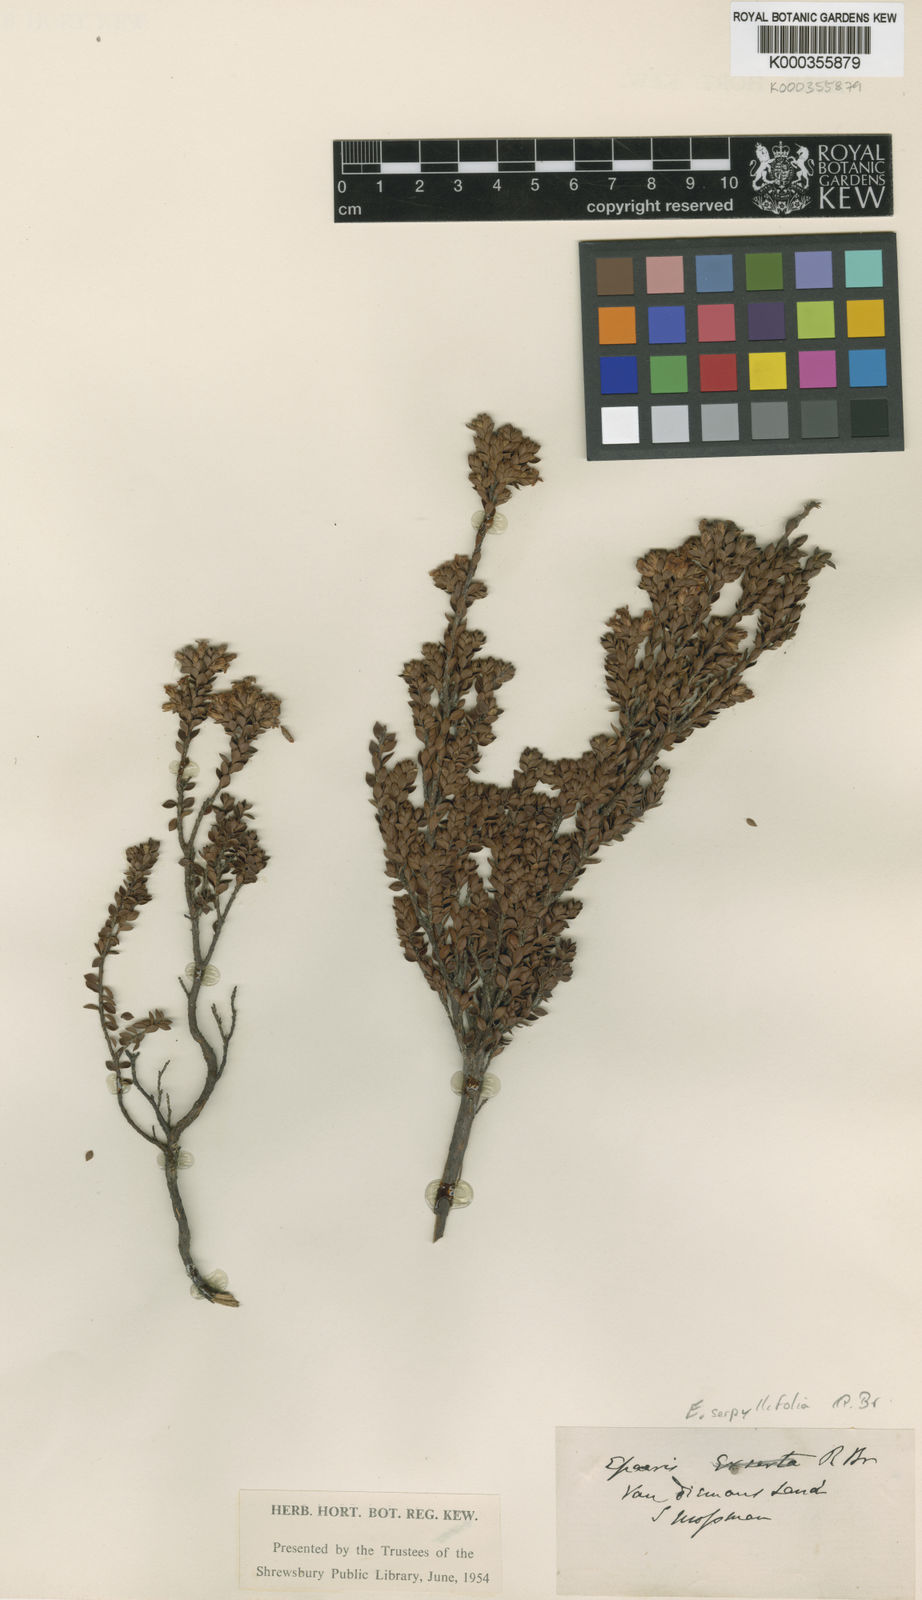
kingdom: Plantae
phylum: Tracheophyta
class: Magnoliopsida
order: Ericales
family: Ericaceae
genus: Epacris
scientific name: Epacris serpyllifolia
